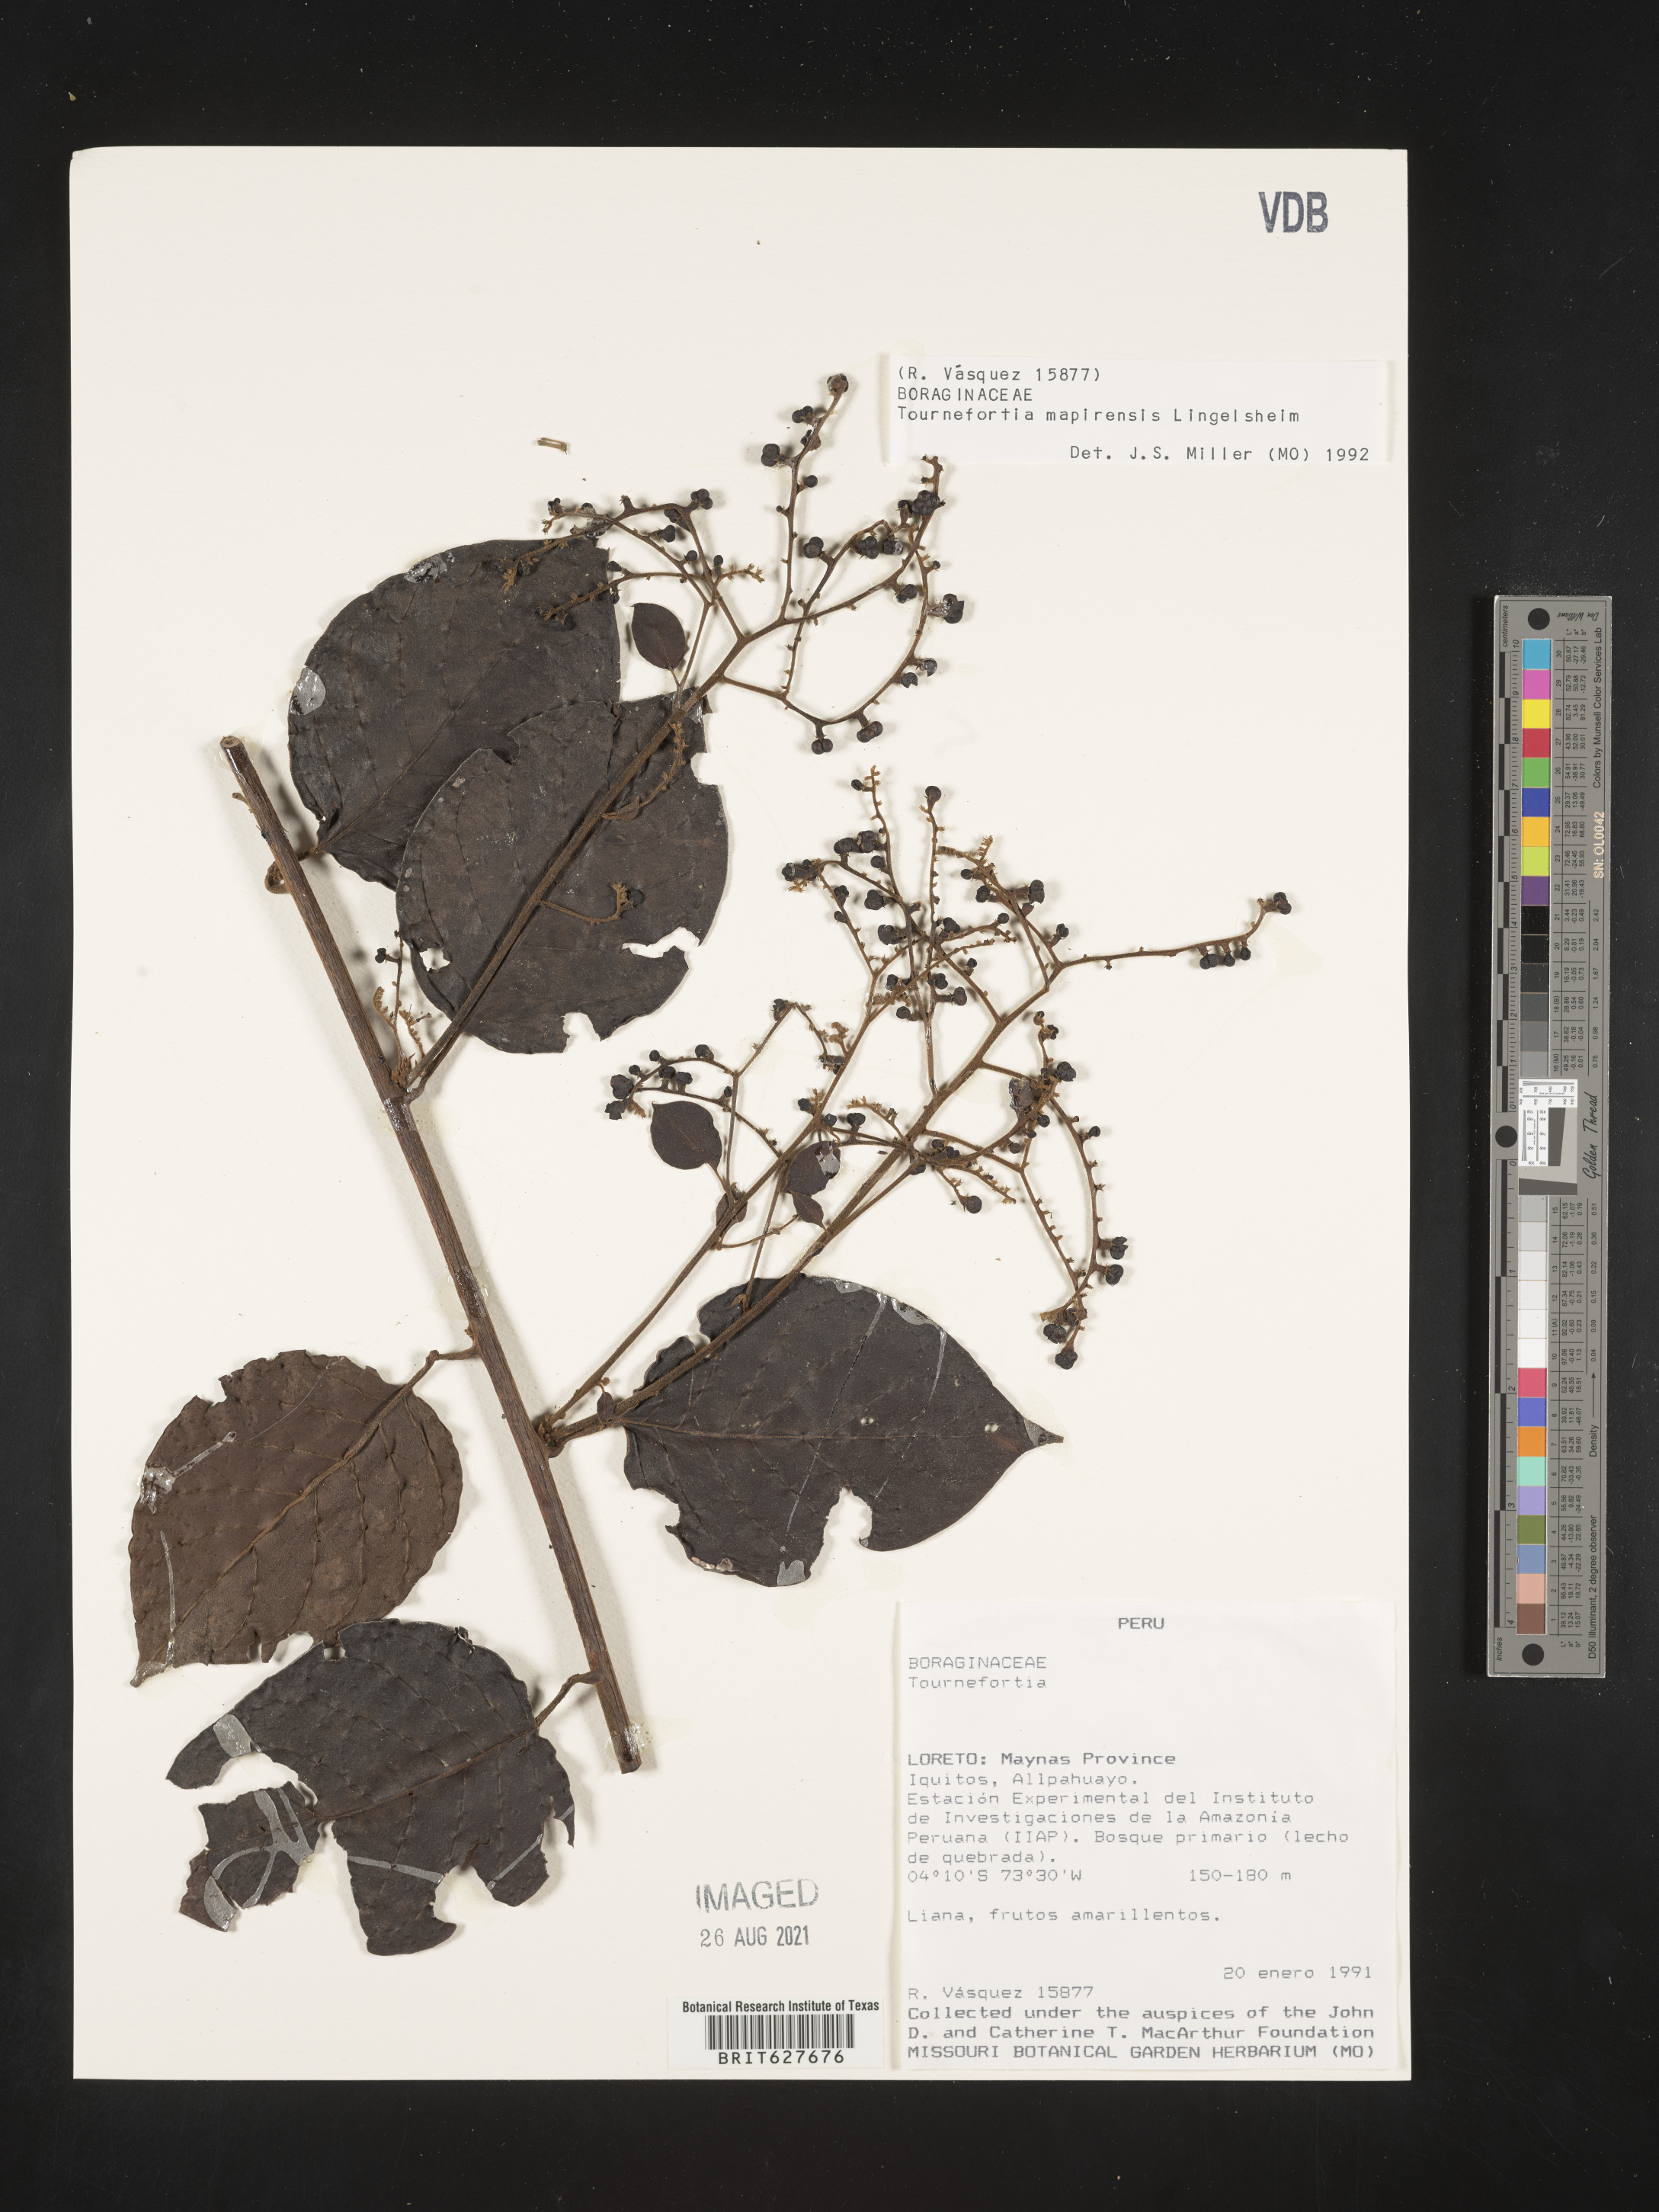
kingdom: Plantae
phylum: Tracheophyta
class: Magnoliopsida
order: Boraginales
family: Heliotropiaceae
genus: Myriopus
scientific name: Myriopus mapirensis
